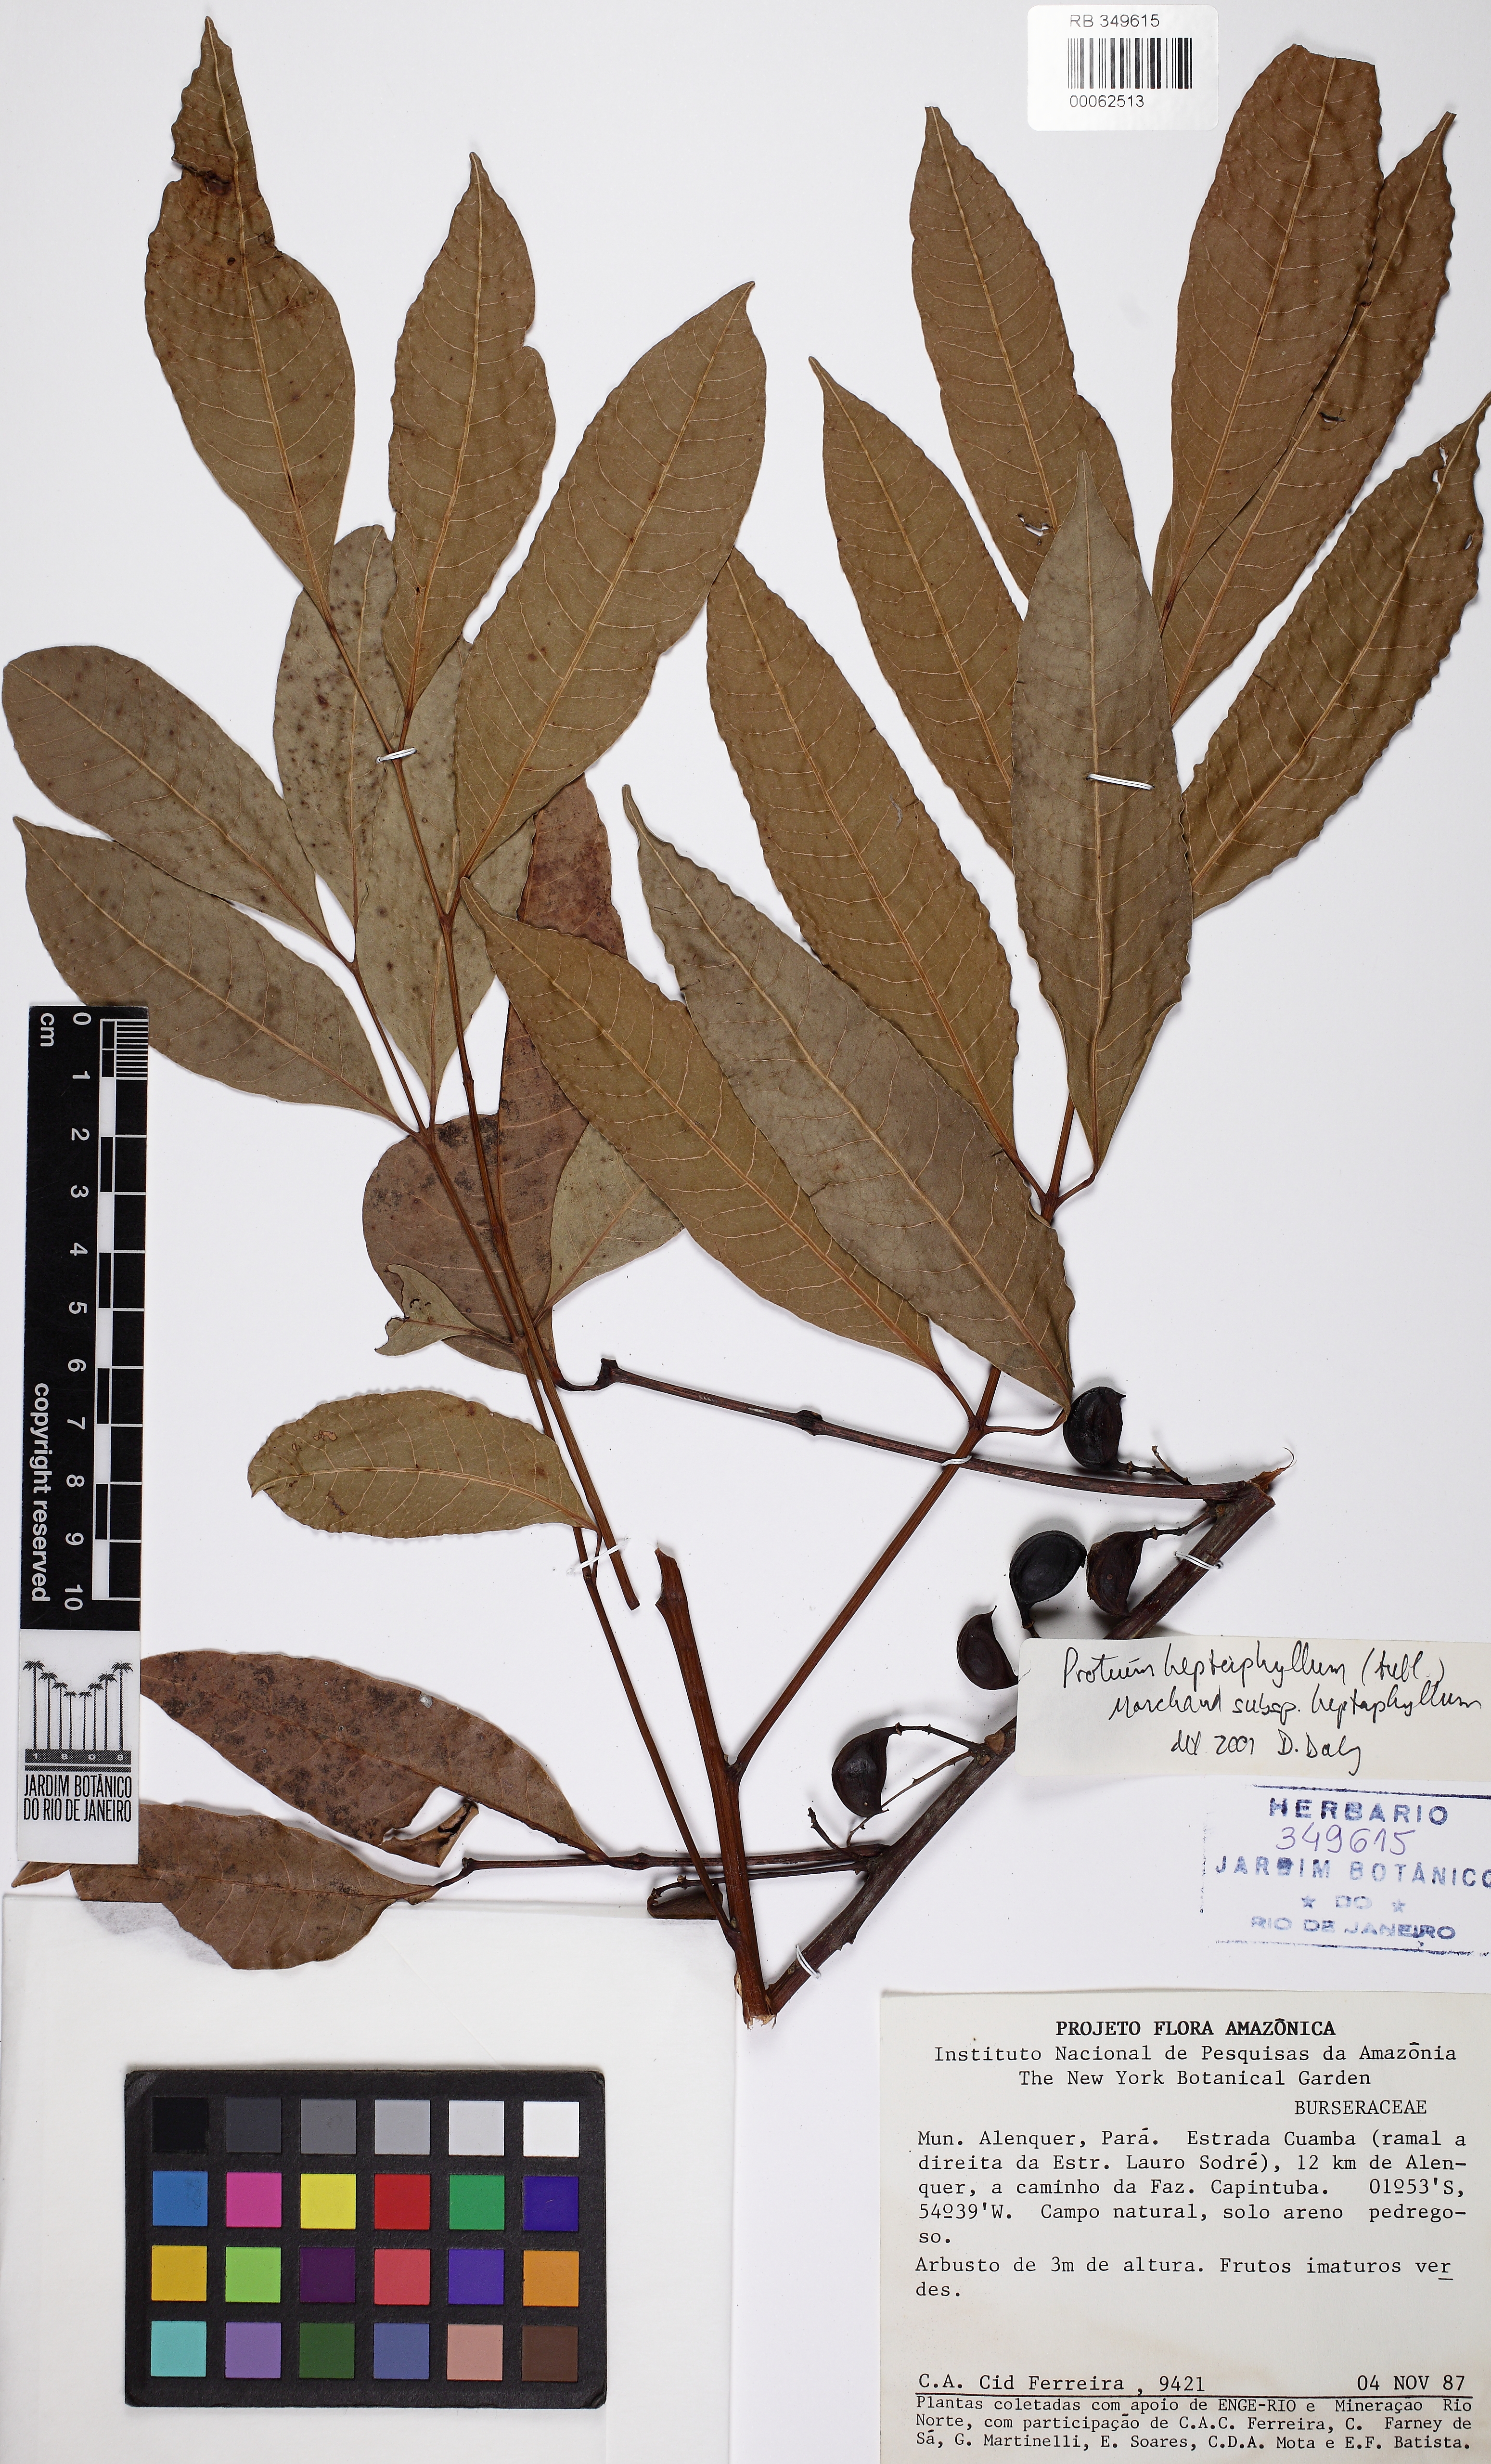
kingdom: Plantae
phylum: Tracheophyta
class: Magnoliopsida
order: Sapindales
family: Burseraceae
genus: Protium
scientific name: Protium heptaphyllum
